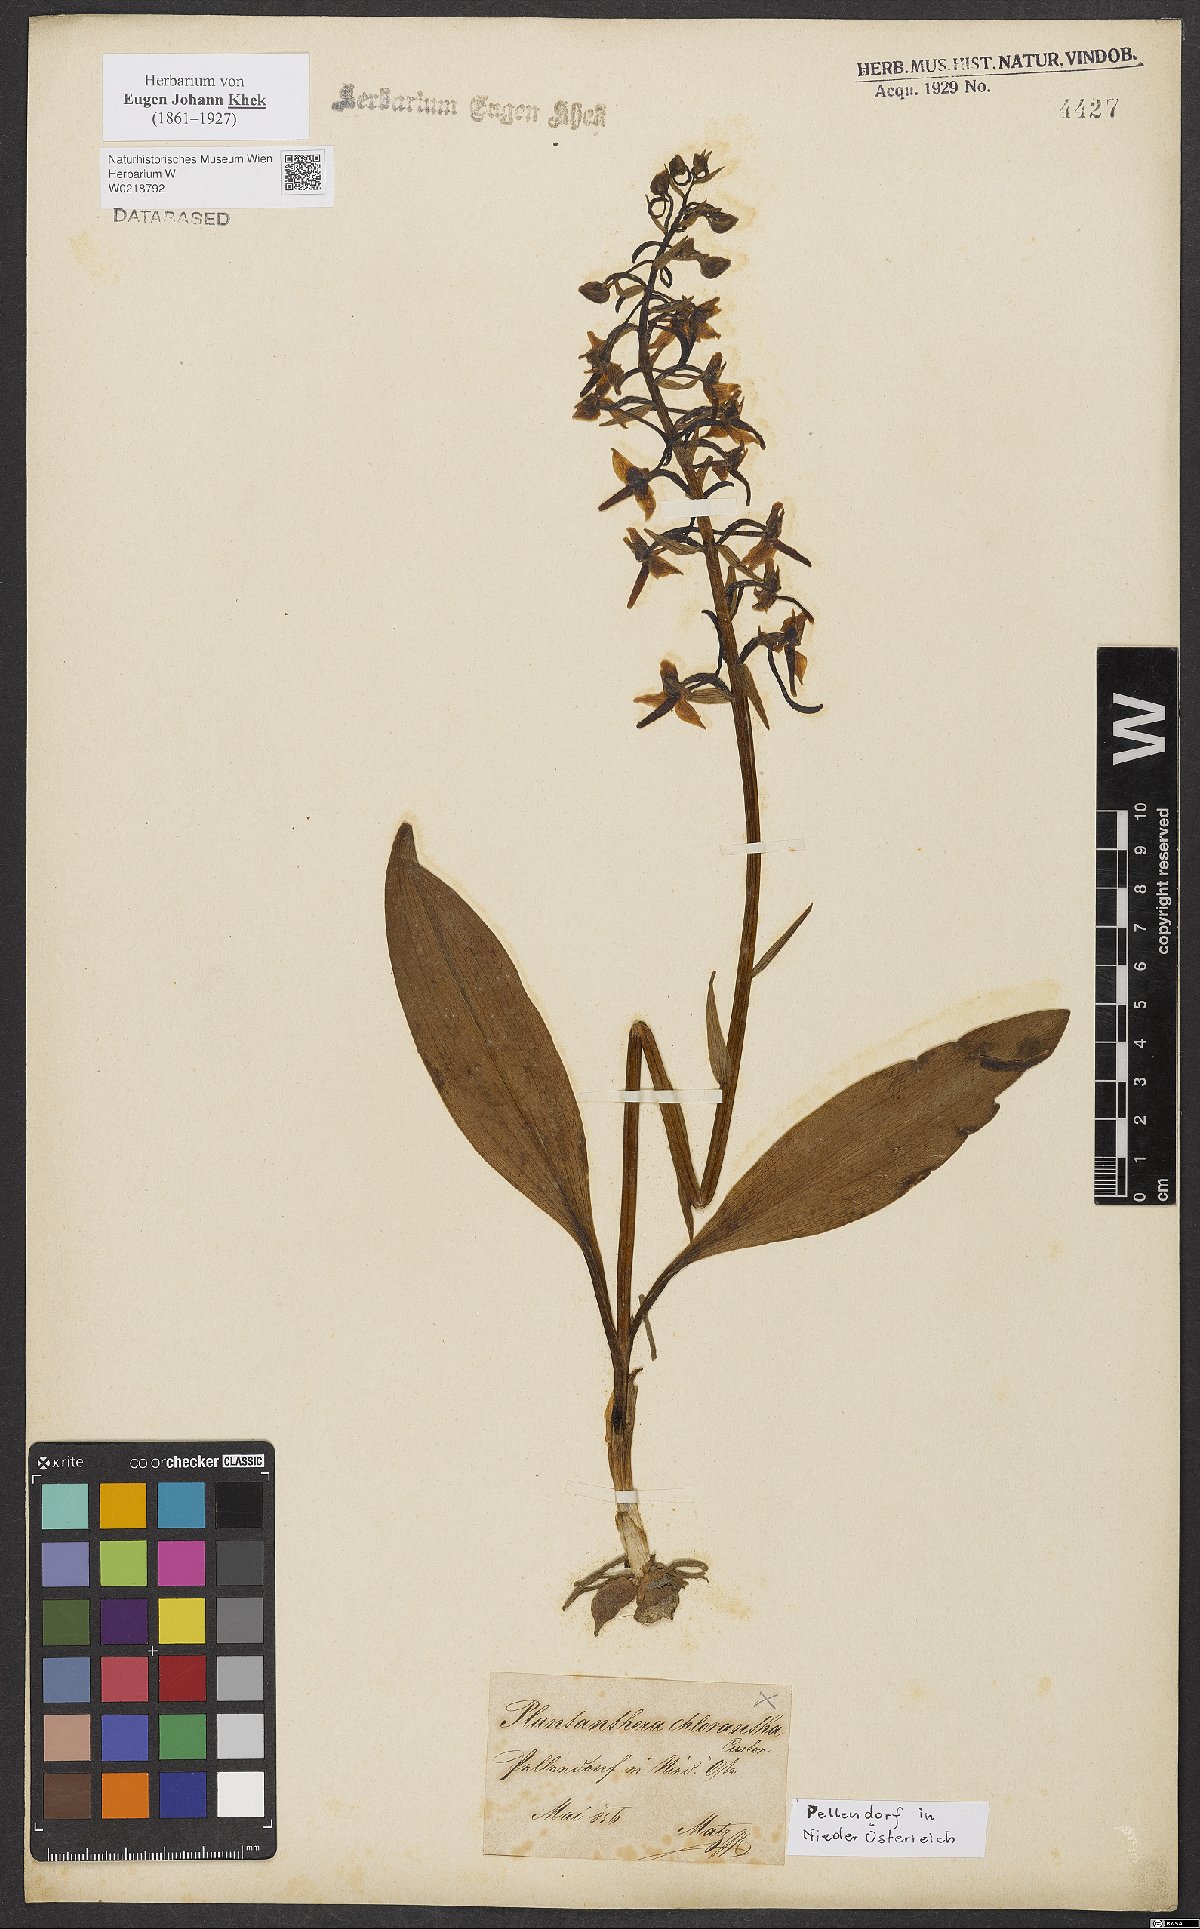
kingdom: Plantae
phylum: Tracheophyta
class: Liliopsida
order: Asparagales
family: Orchidaceae
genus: Platanthera
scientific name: Platanthera chlorantha
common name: Greater butterfly-orchid
